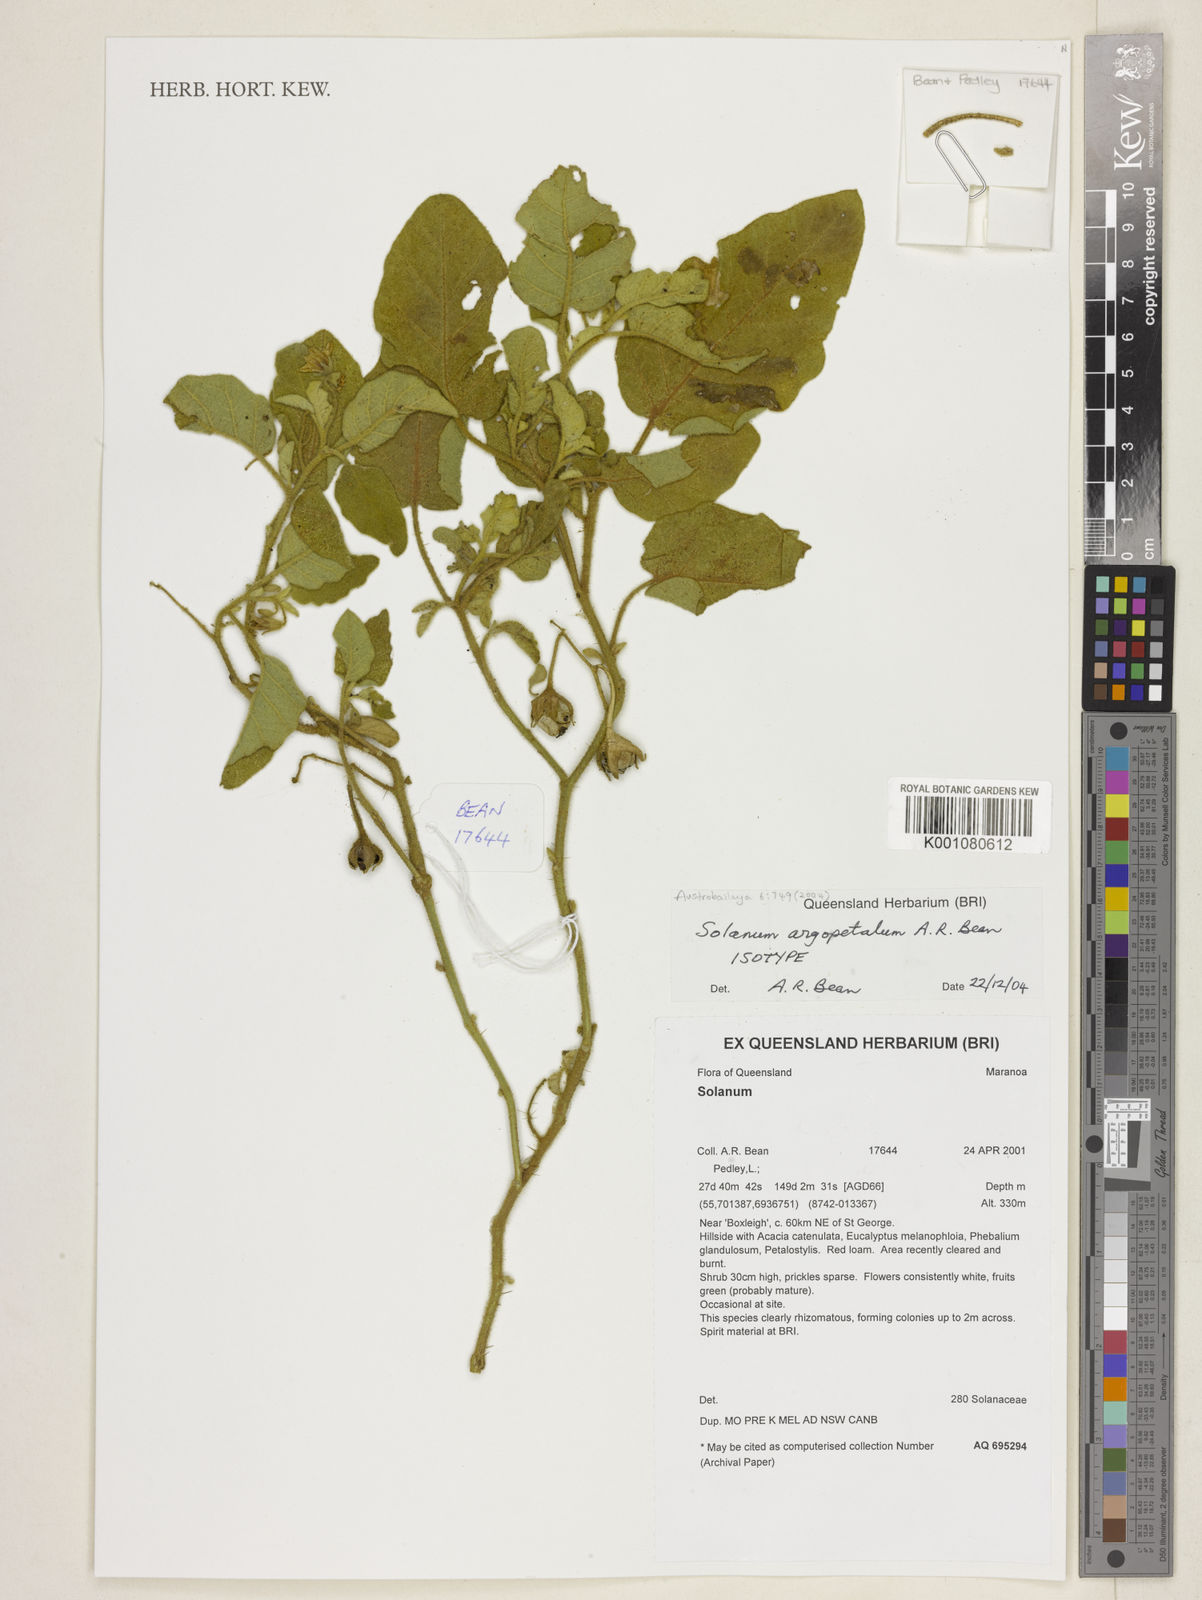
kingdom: Plantae
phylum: Tracheophyta
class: Magnoliopsida
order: Solanales
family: Solanaceae
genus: Solanum
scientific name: Solanum argopetalum
